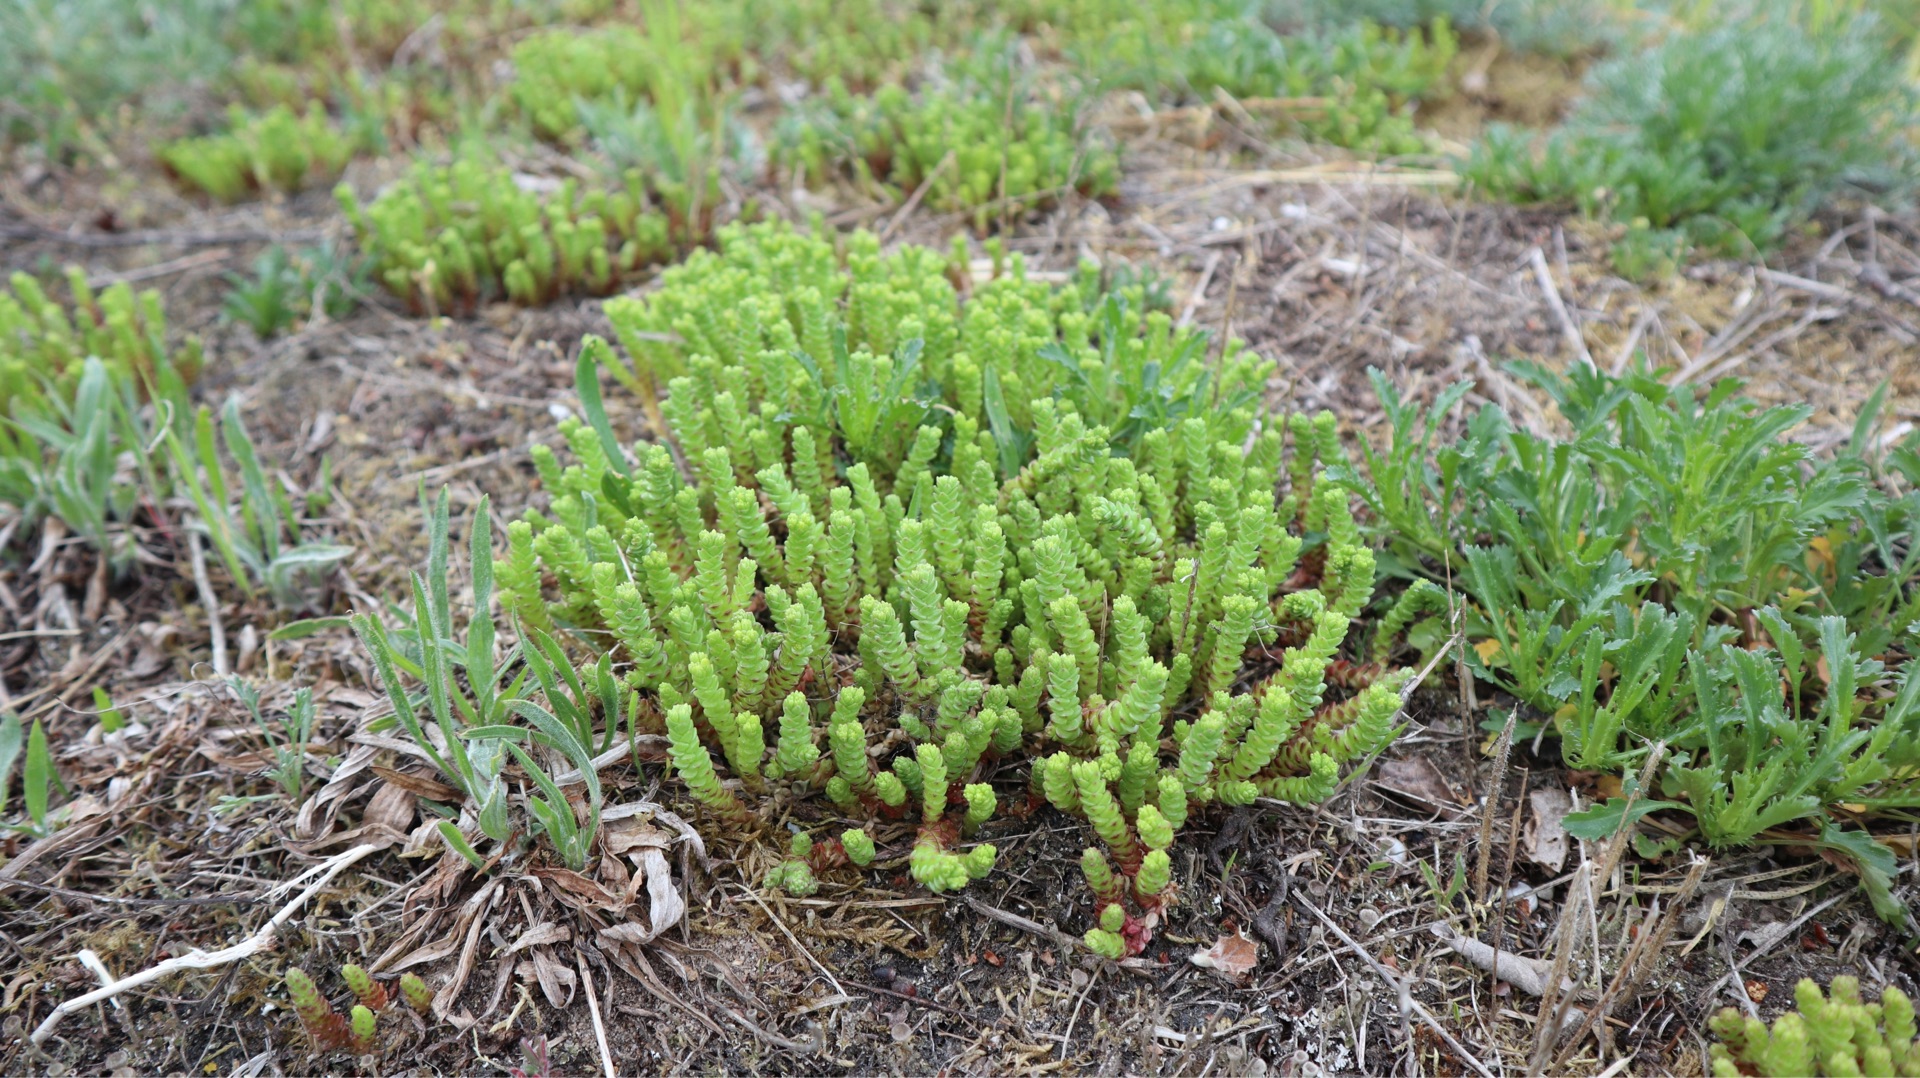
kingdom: Plantae
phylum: Tracheophyta
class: Magnoliopsida
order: Saxifragales
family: Crassulaceae
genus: Sedum
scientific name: Sedum acre
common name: Bidende stenurt
